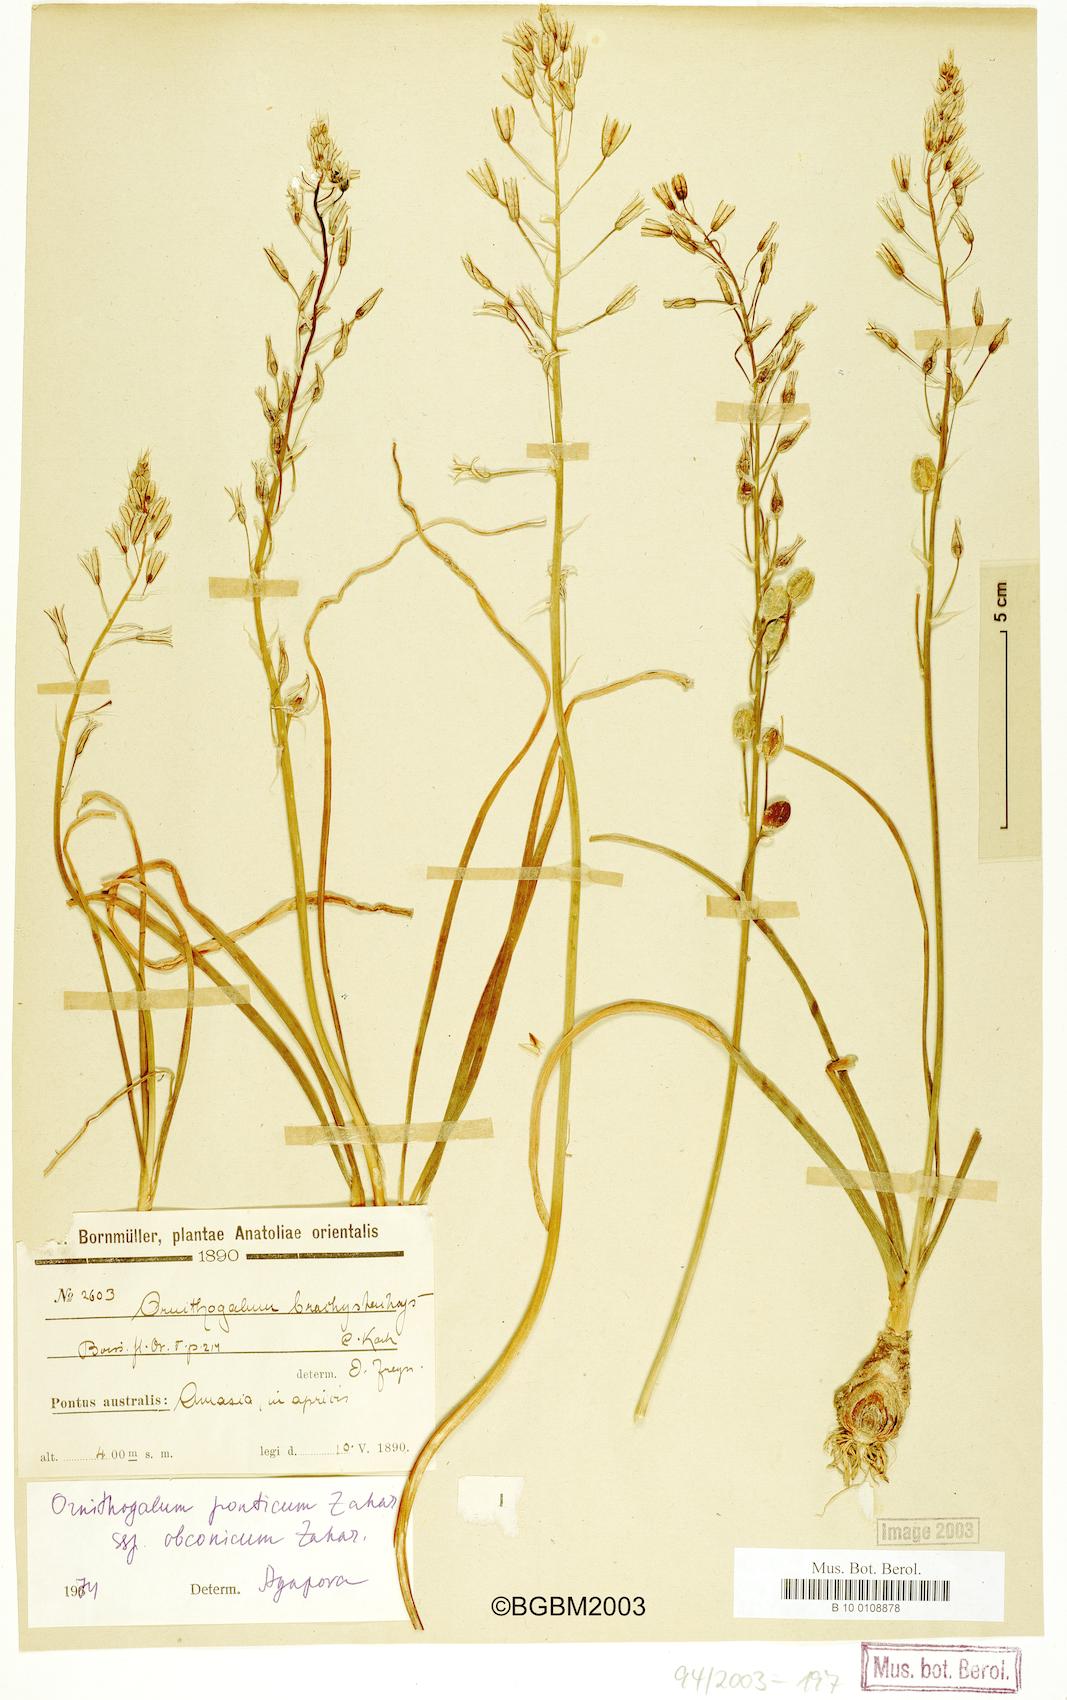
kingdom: Plantae
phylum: Tracheophyta
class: Liliopsida
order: Asparagales
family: Asparagaceae
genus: Ornithogalum
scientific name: Ornithogalum hajastanum
